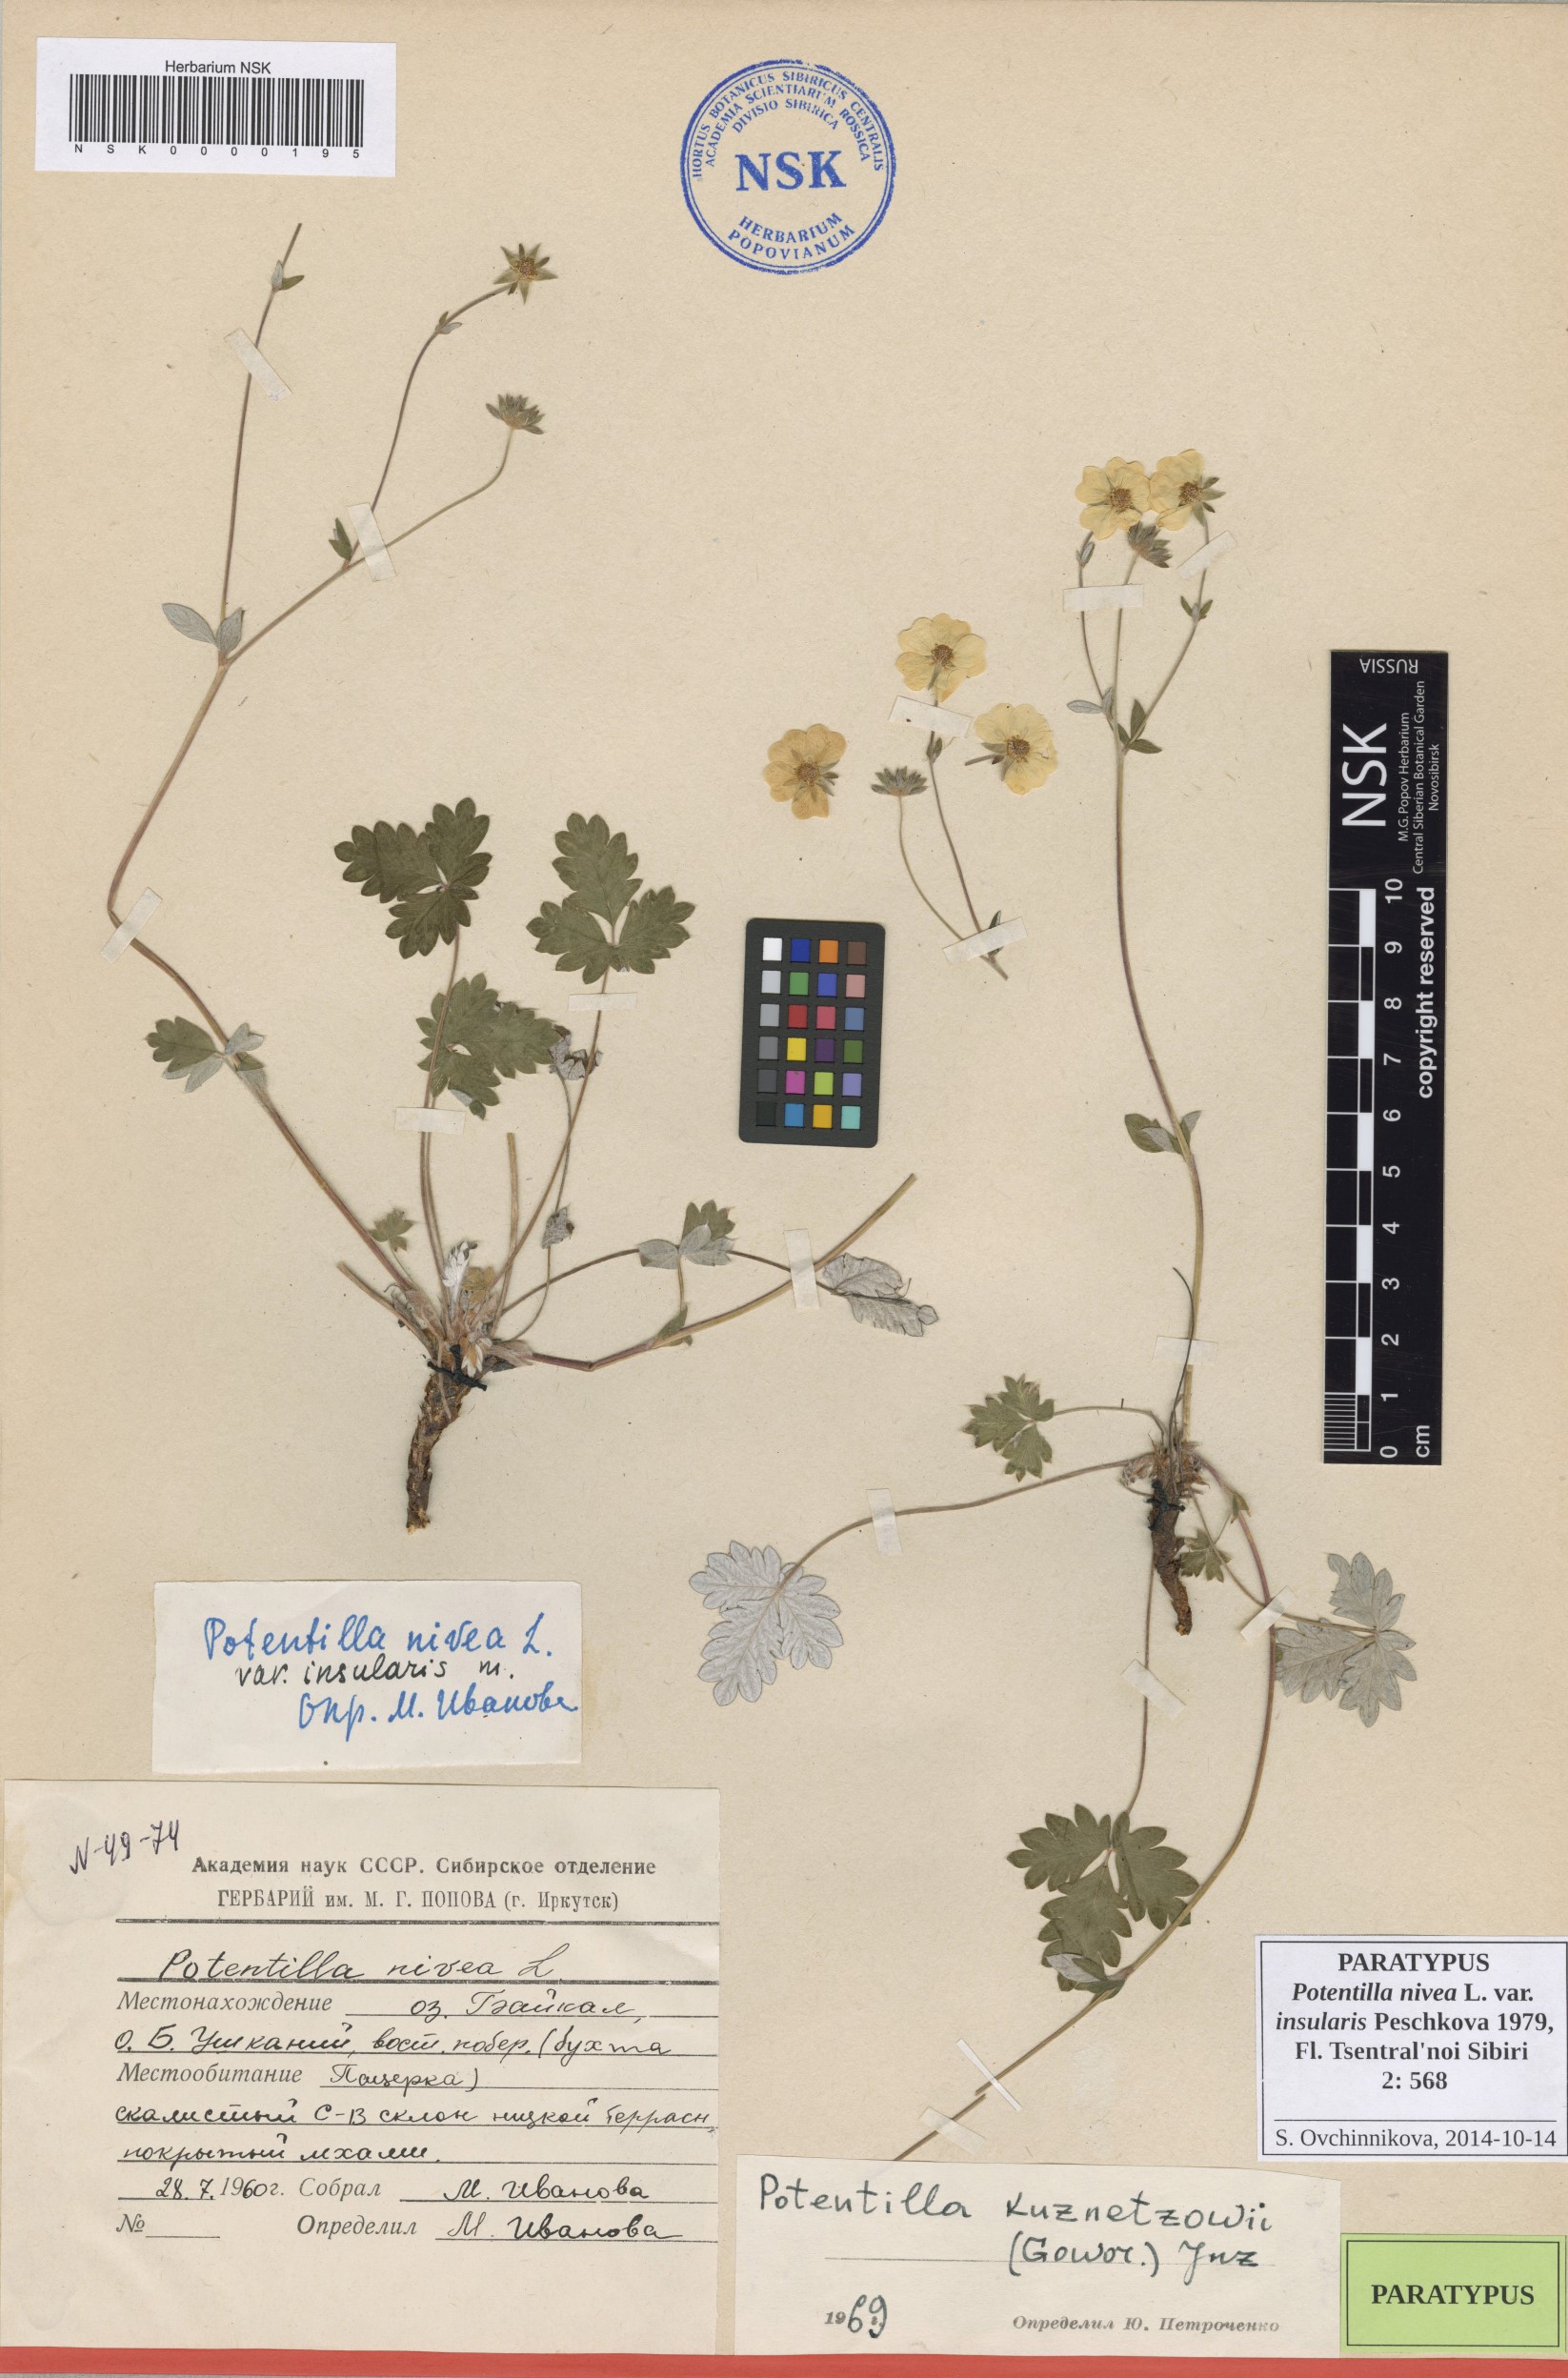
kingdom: Plantae
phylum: Tracheophyta
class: Magnoliopsida
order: Rosales
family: Rosaceae
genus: Potentilla
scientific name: Potentilla nivea
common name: Snow cinquefoil
